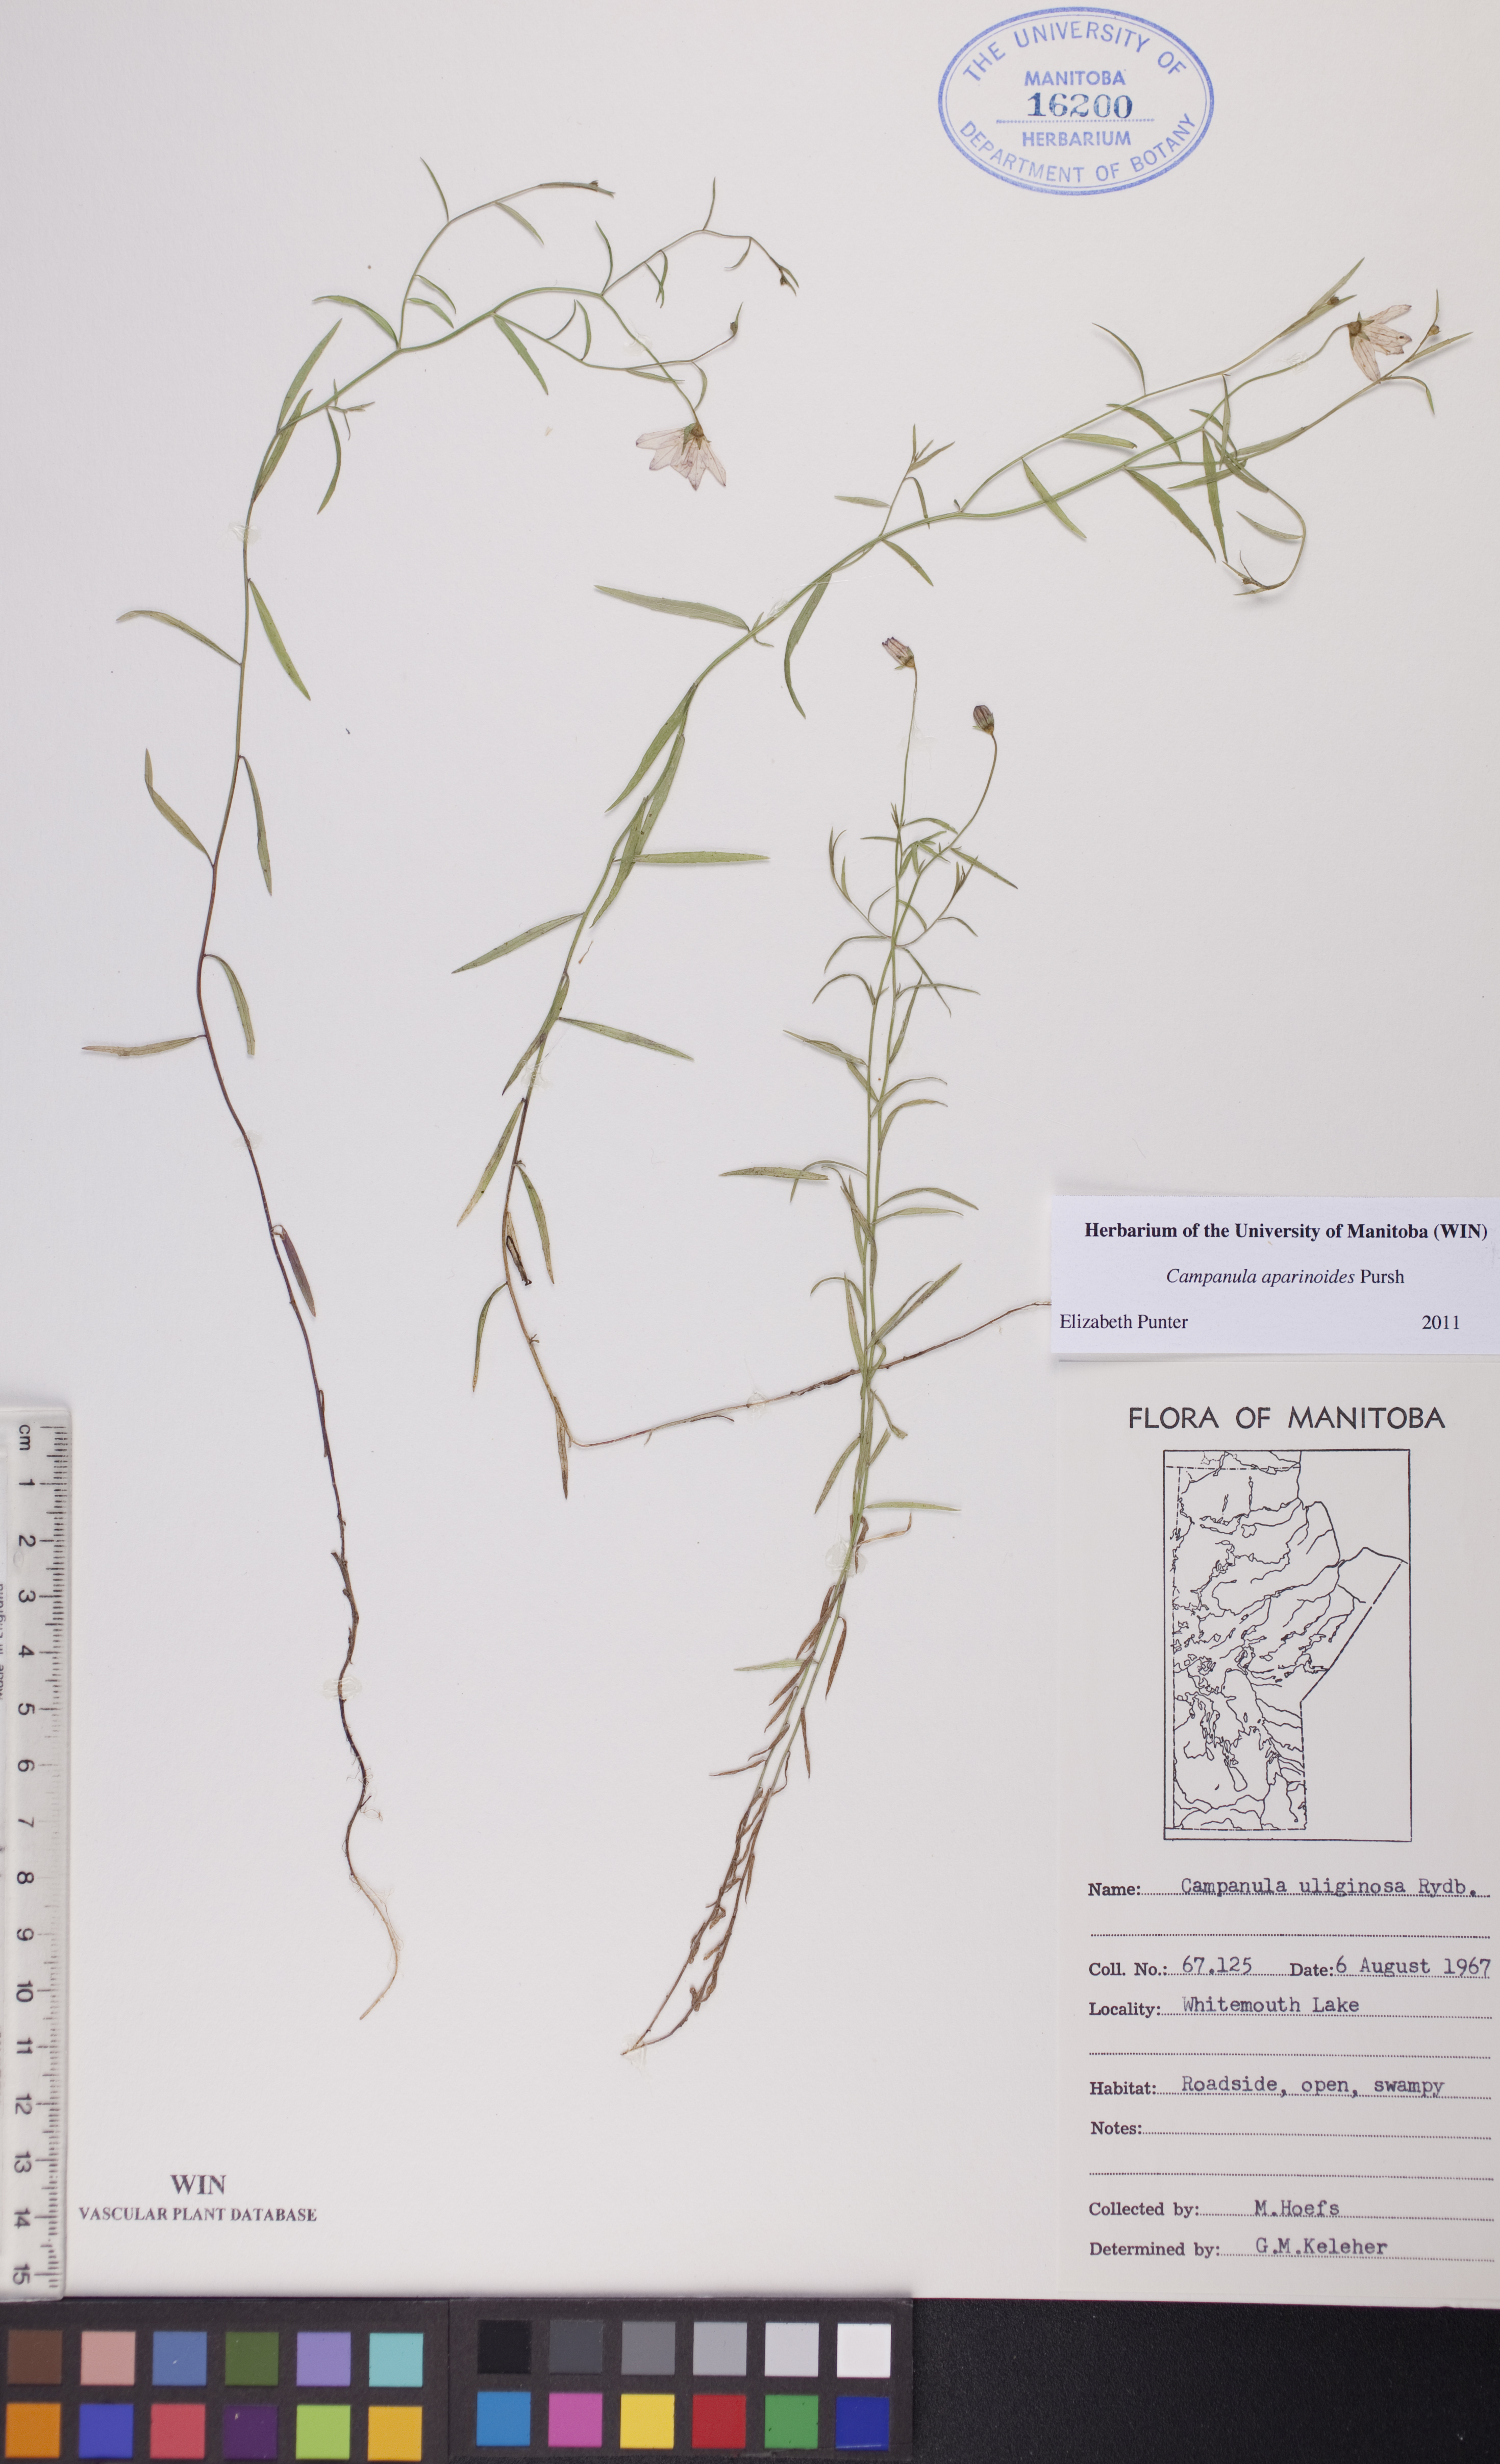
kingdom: Plantae
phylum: Tracheophyta
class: Magnoliopsida
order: Asterales
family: Campanulaceae
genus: Palustricodon
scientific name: Palustricodon aparinoides
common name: Bedstraw bellflower
